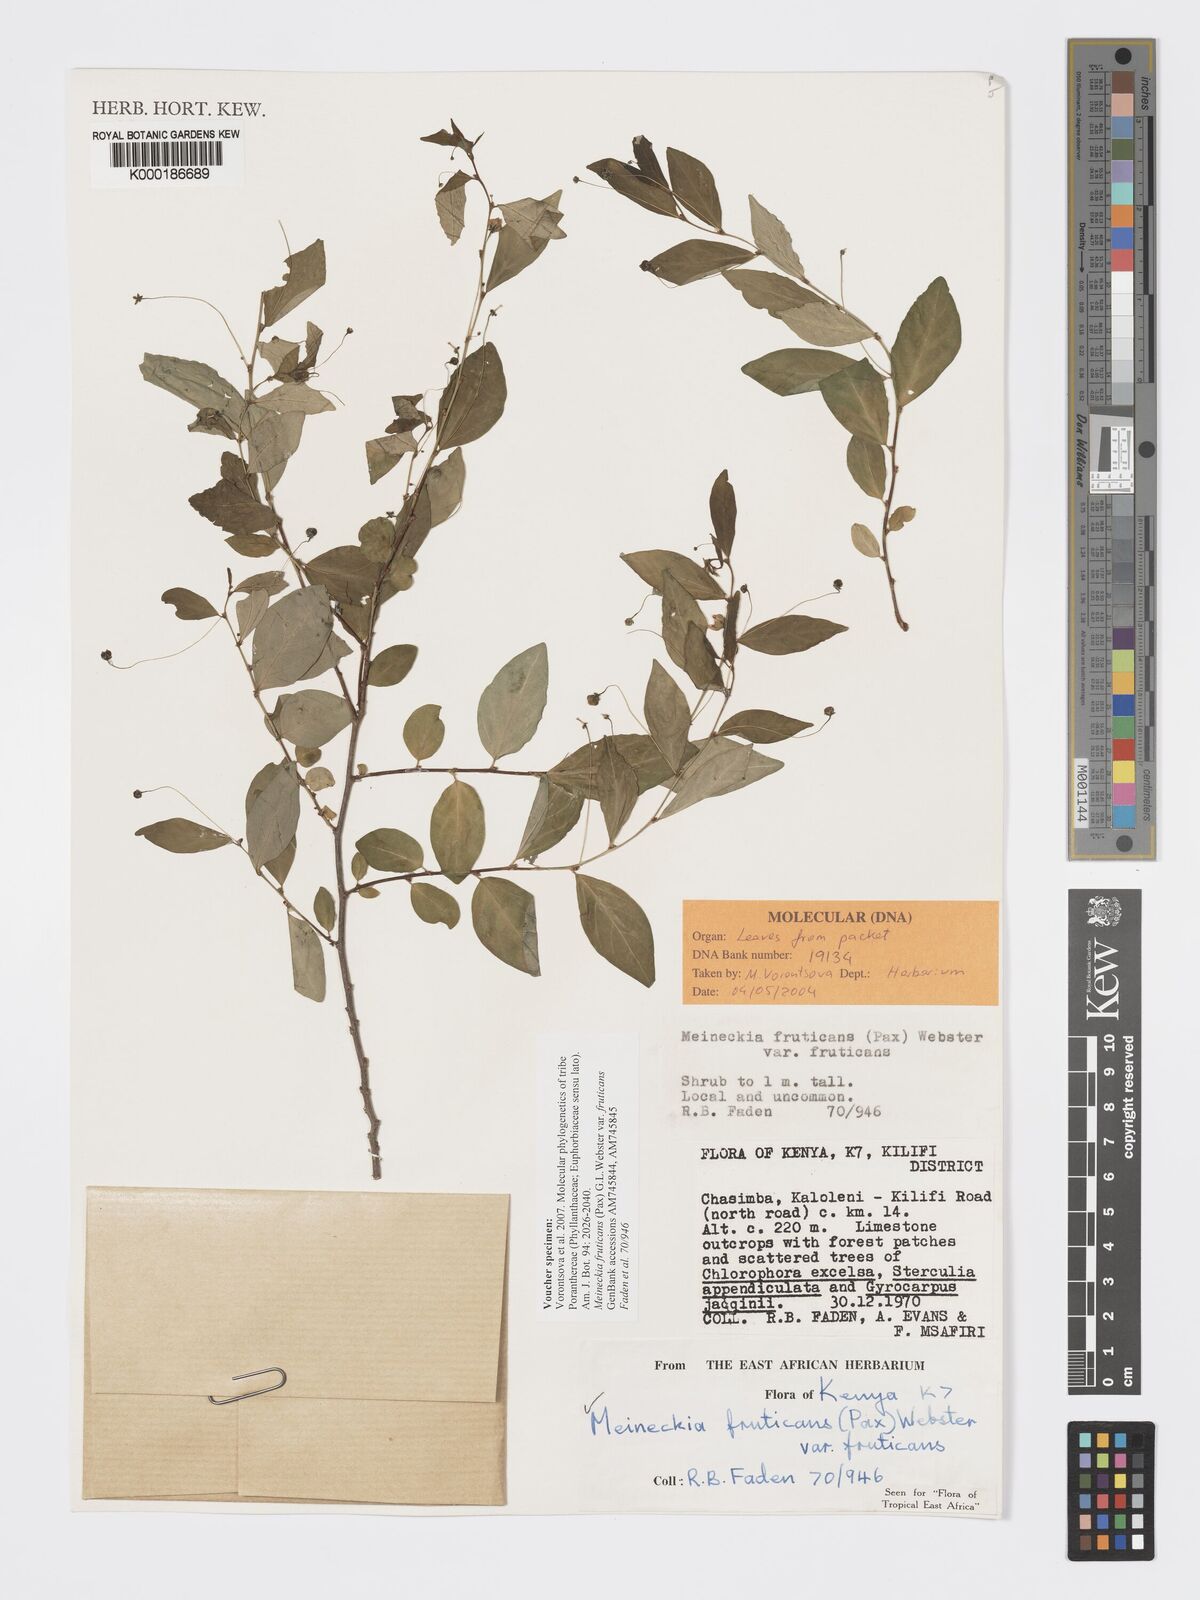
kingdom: Plantae
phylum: Tracheophyta
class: Magnoliopsida
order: Malpighiales
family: Phyllanthaceae
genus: Meineckia
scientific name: Meineckia fruticans
